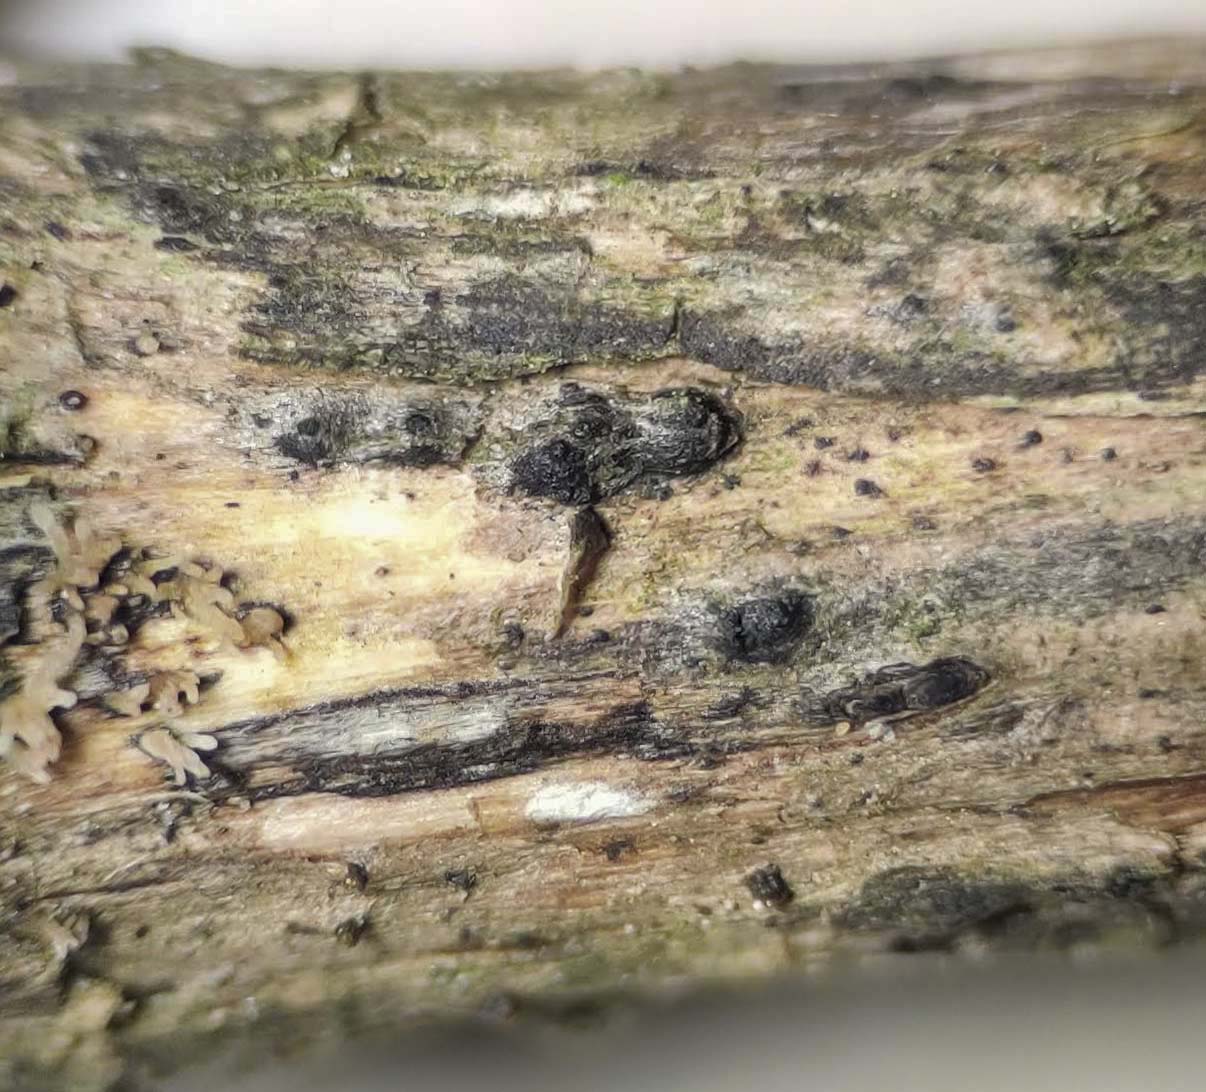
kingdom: Fungi
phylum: Ascomycota
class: Sordariomycetes
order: Amphisphaeriales
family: Amphisphaeriaceae
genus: Amphisphaerella
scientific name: Amphisphaerella xylostei
